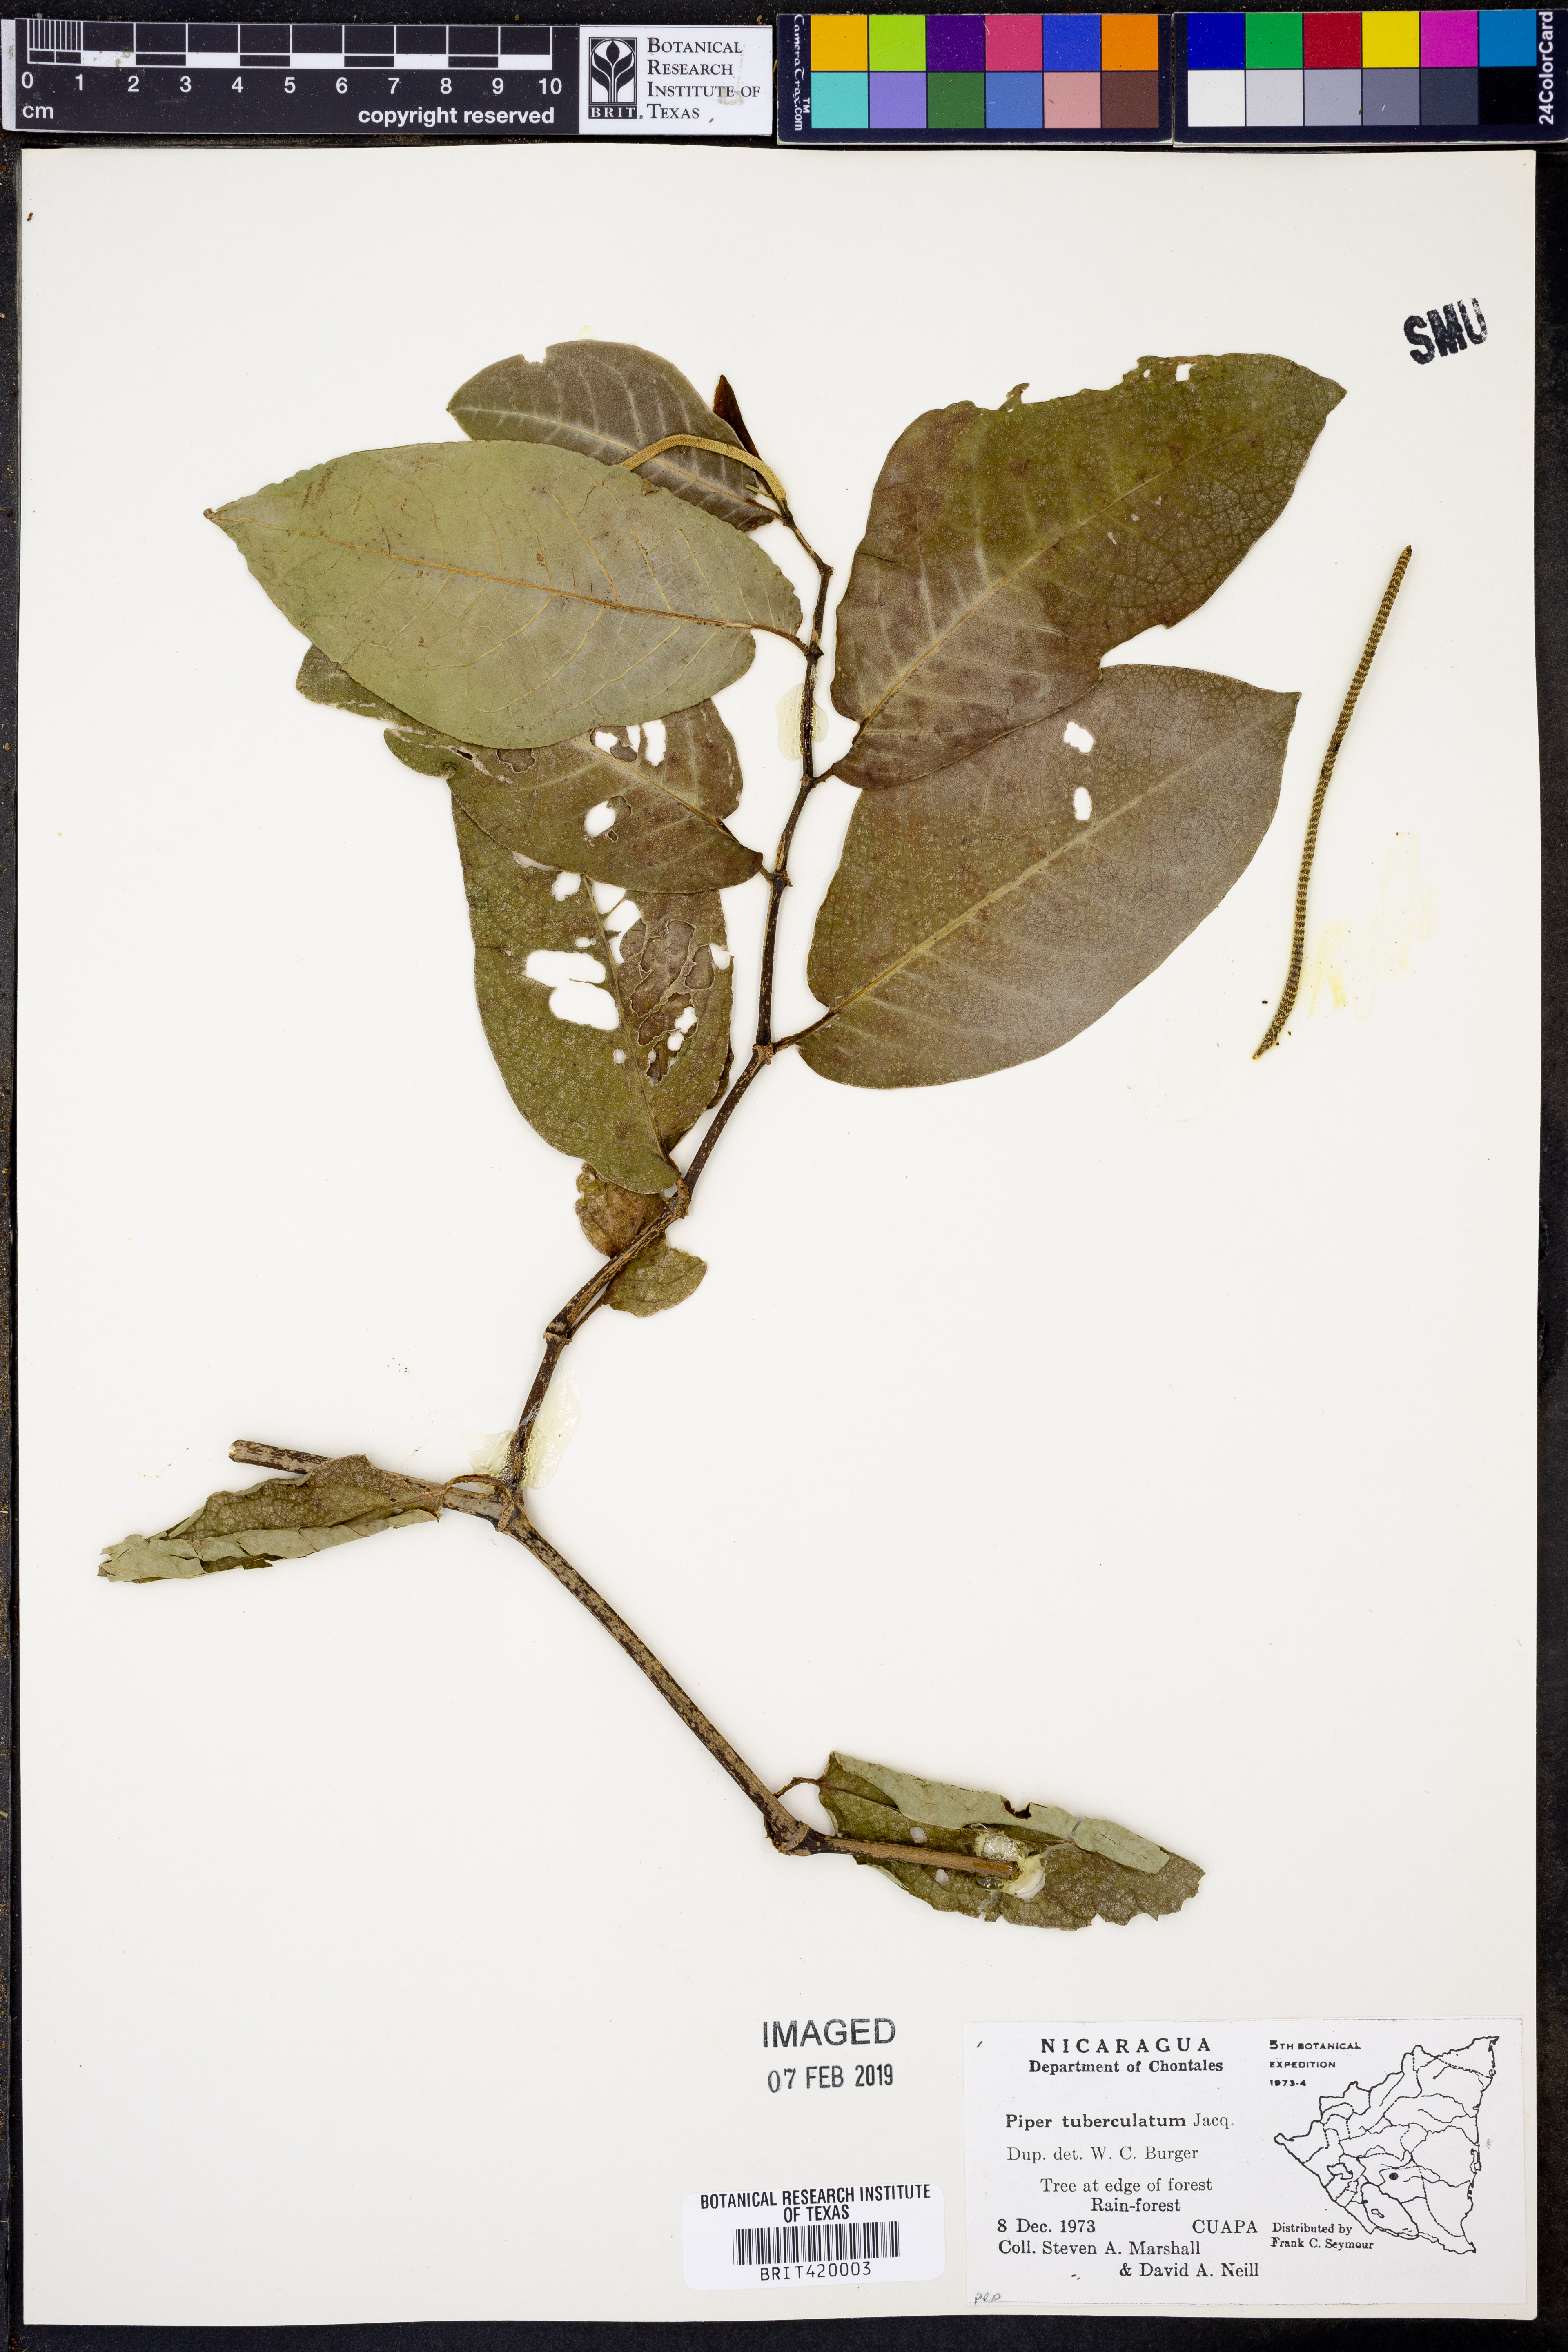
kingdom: Plantae
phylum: Tracheophyta
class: Magnoliopsida
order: Piperales
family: Piperaceae
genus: Piper
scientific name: Piper tuberculatum
